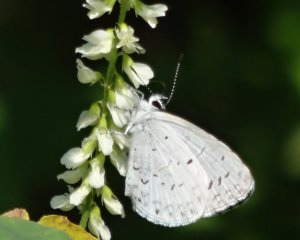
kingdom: Animalia
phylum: Arthropoda
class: Insecta
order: Lepidoptera
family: Lycaenidae
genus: Cyaniris
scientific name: Cyaniris neglecta
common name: Summer Azure
